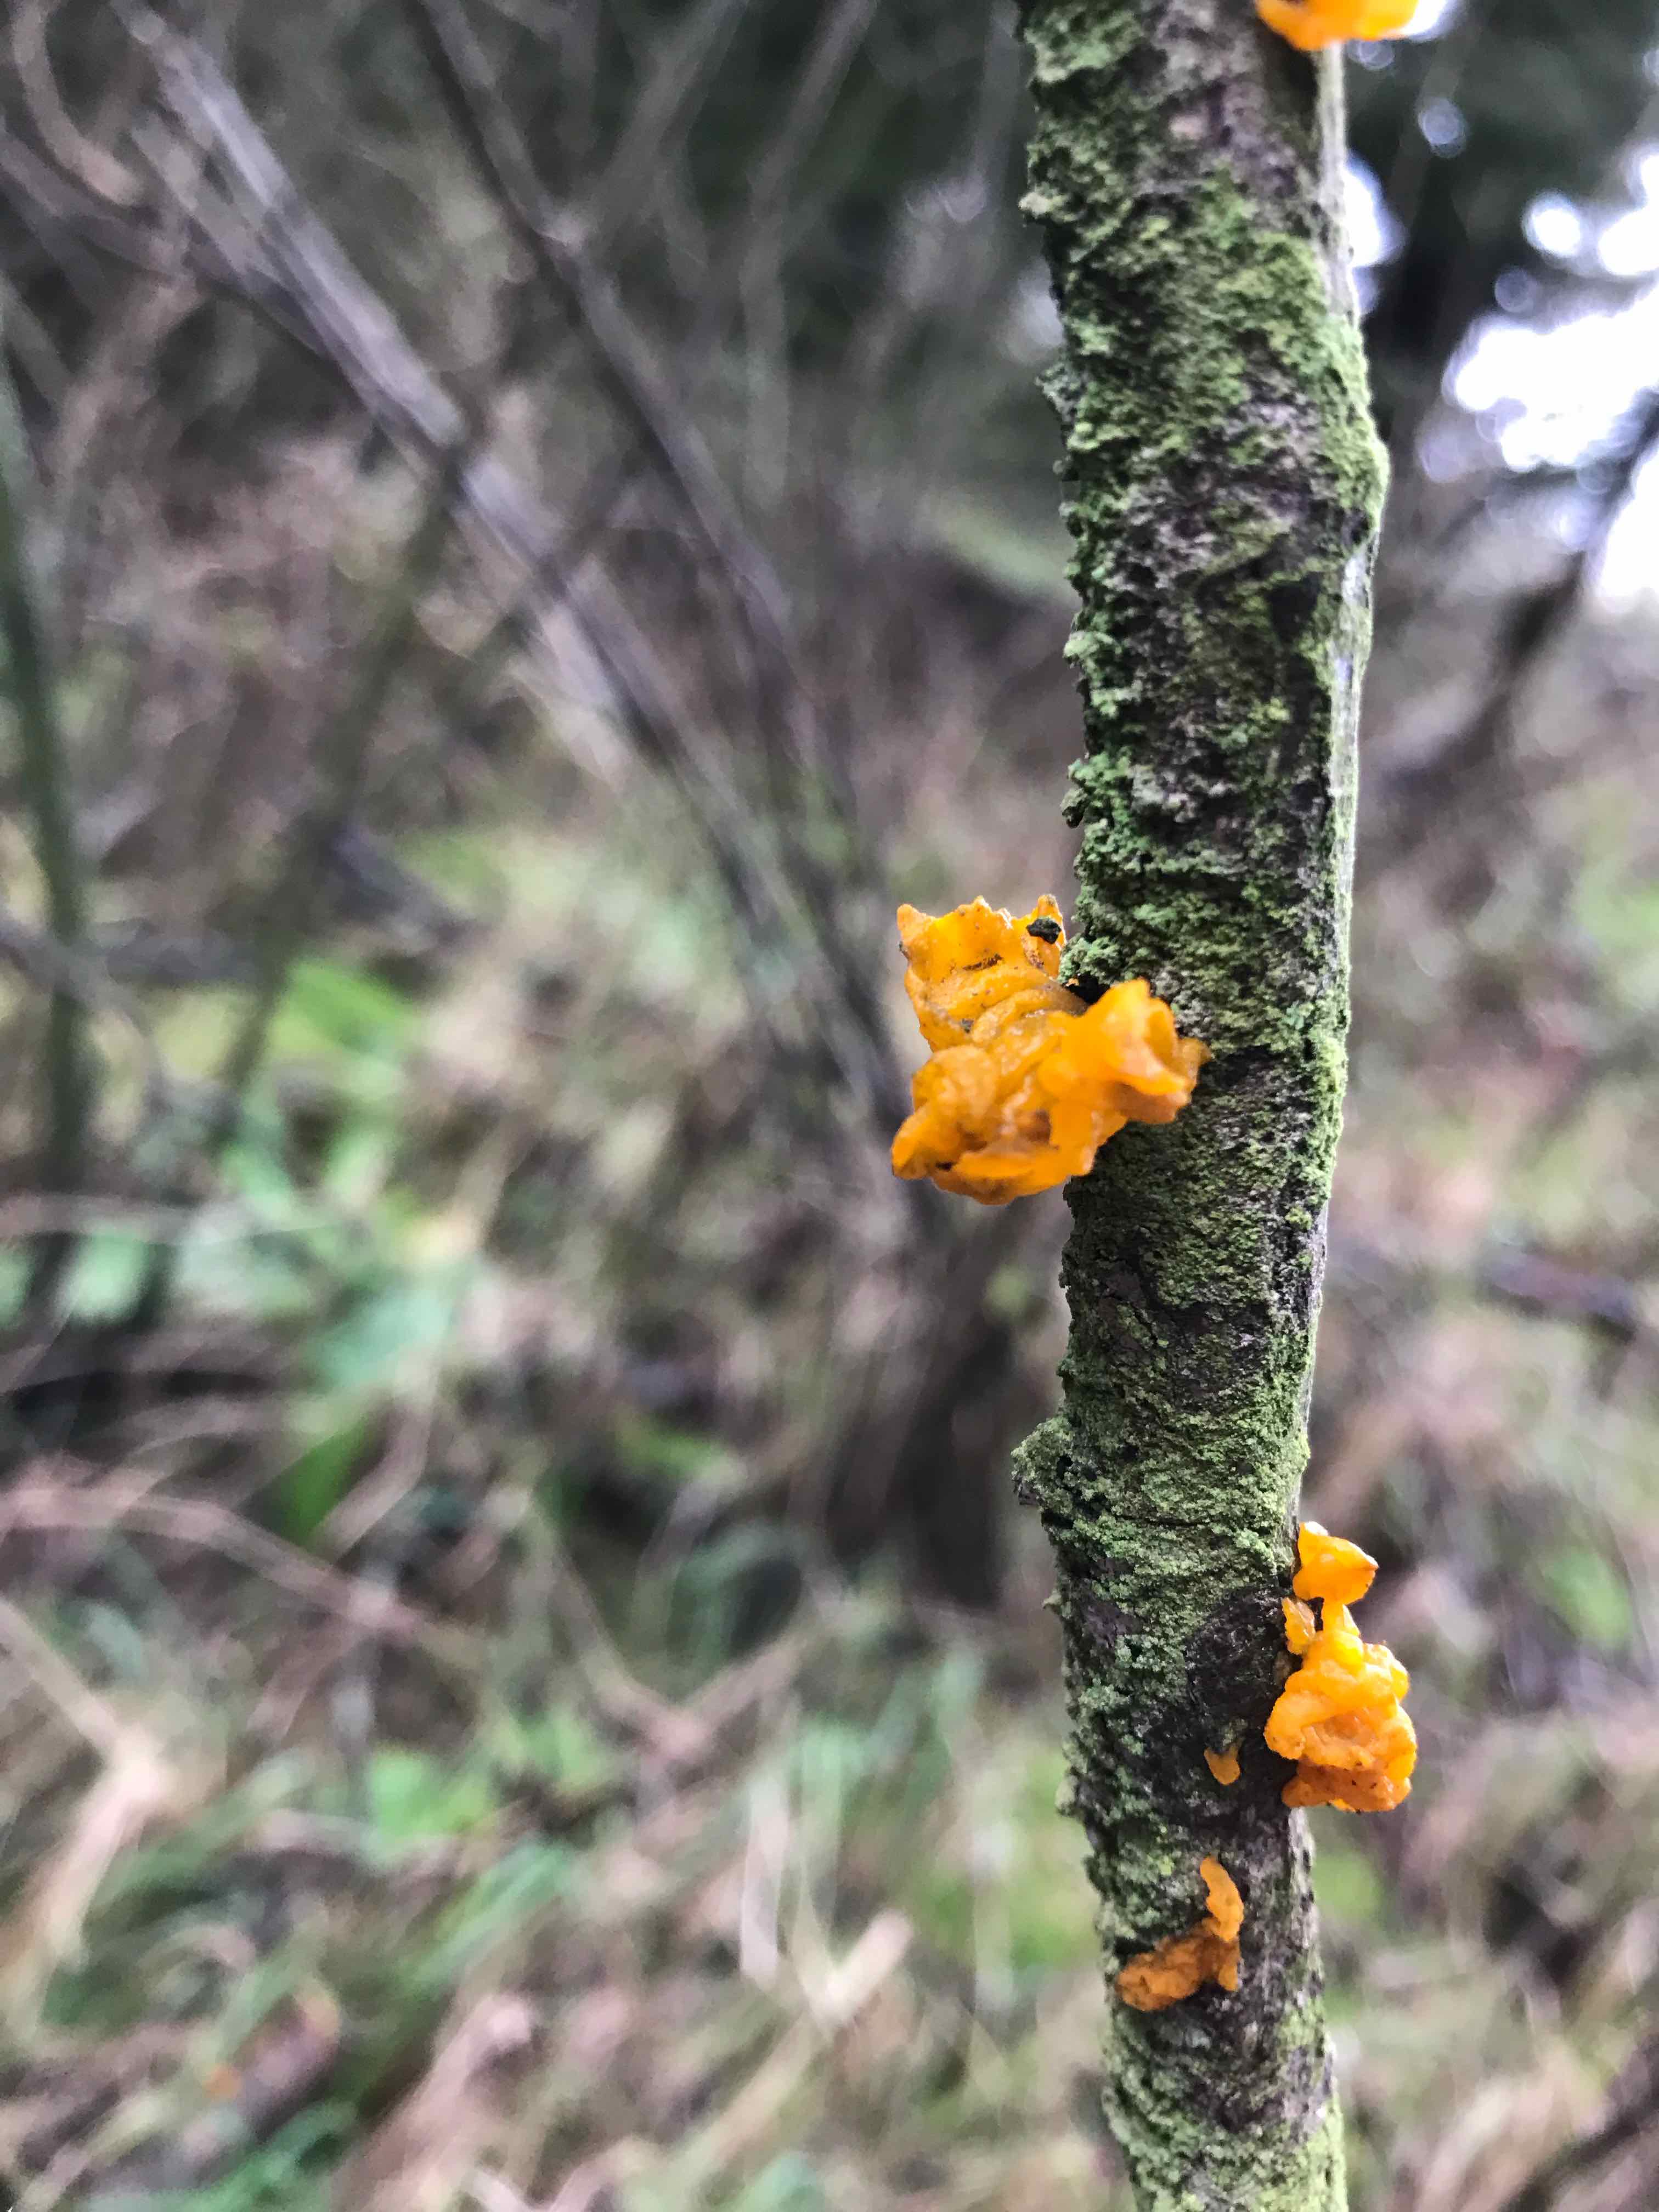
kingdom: Fungi
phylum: Basidiomycota
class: Tremellomycetes
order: Tremellales
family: Tremellaceae
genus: Tremella
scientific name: Tremella mesenterica
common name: gul bævresvamp
